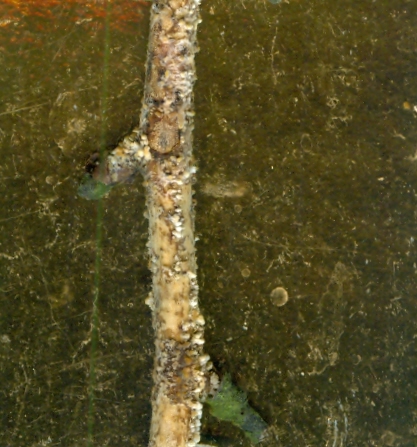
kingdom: Fungi
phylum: Basidiomycota
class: Agaricomycetes
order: Russulales
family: Peniophoraceae
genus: Peniophora
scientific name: Peniophora laeta
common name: tandet voksskind
